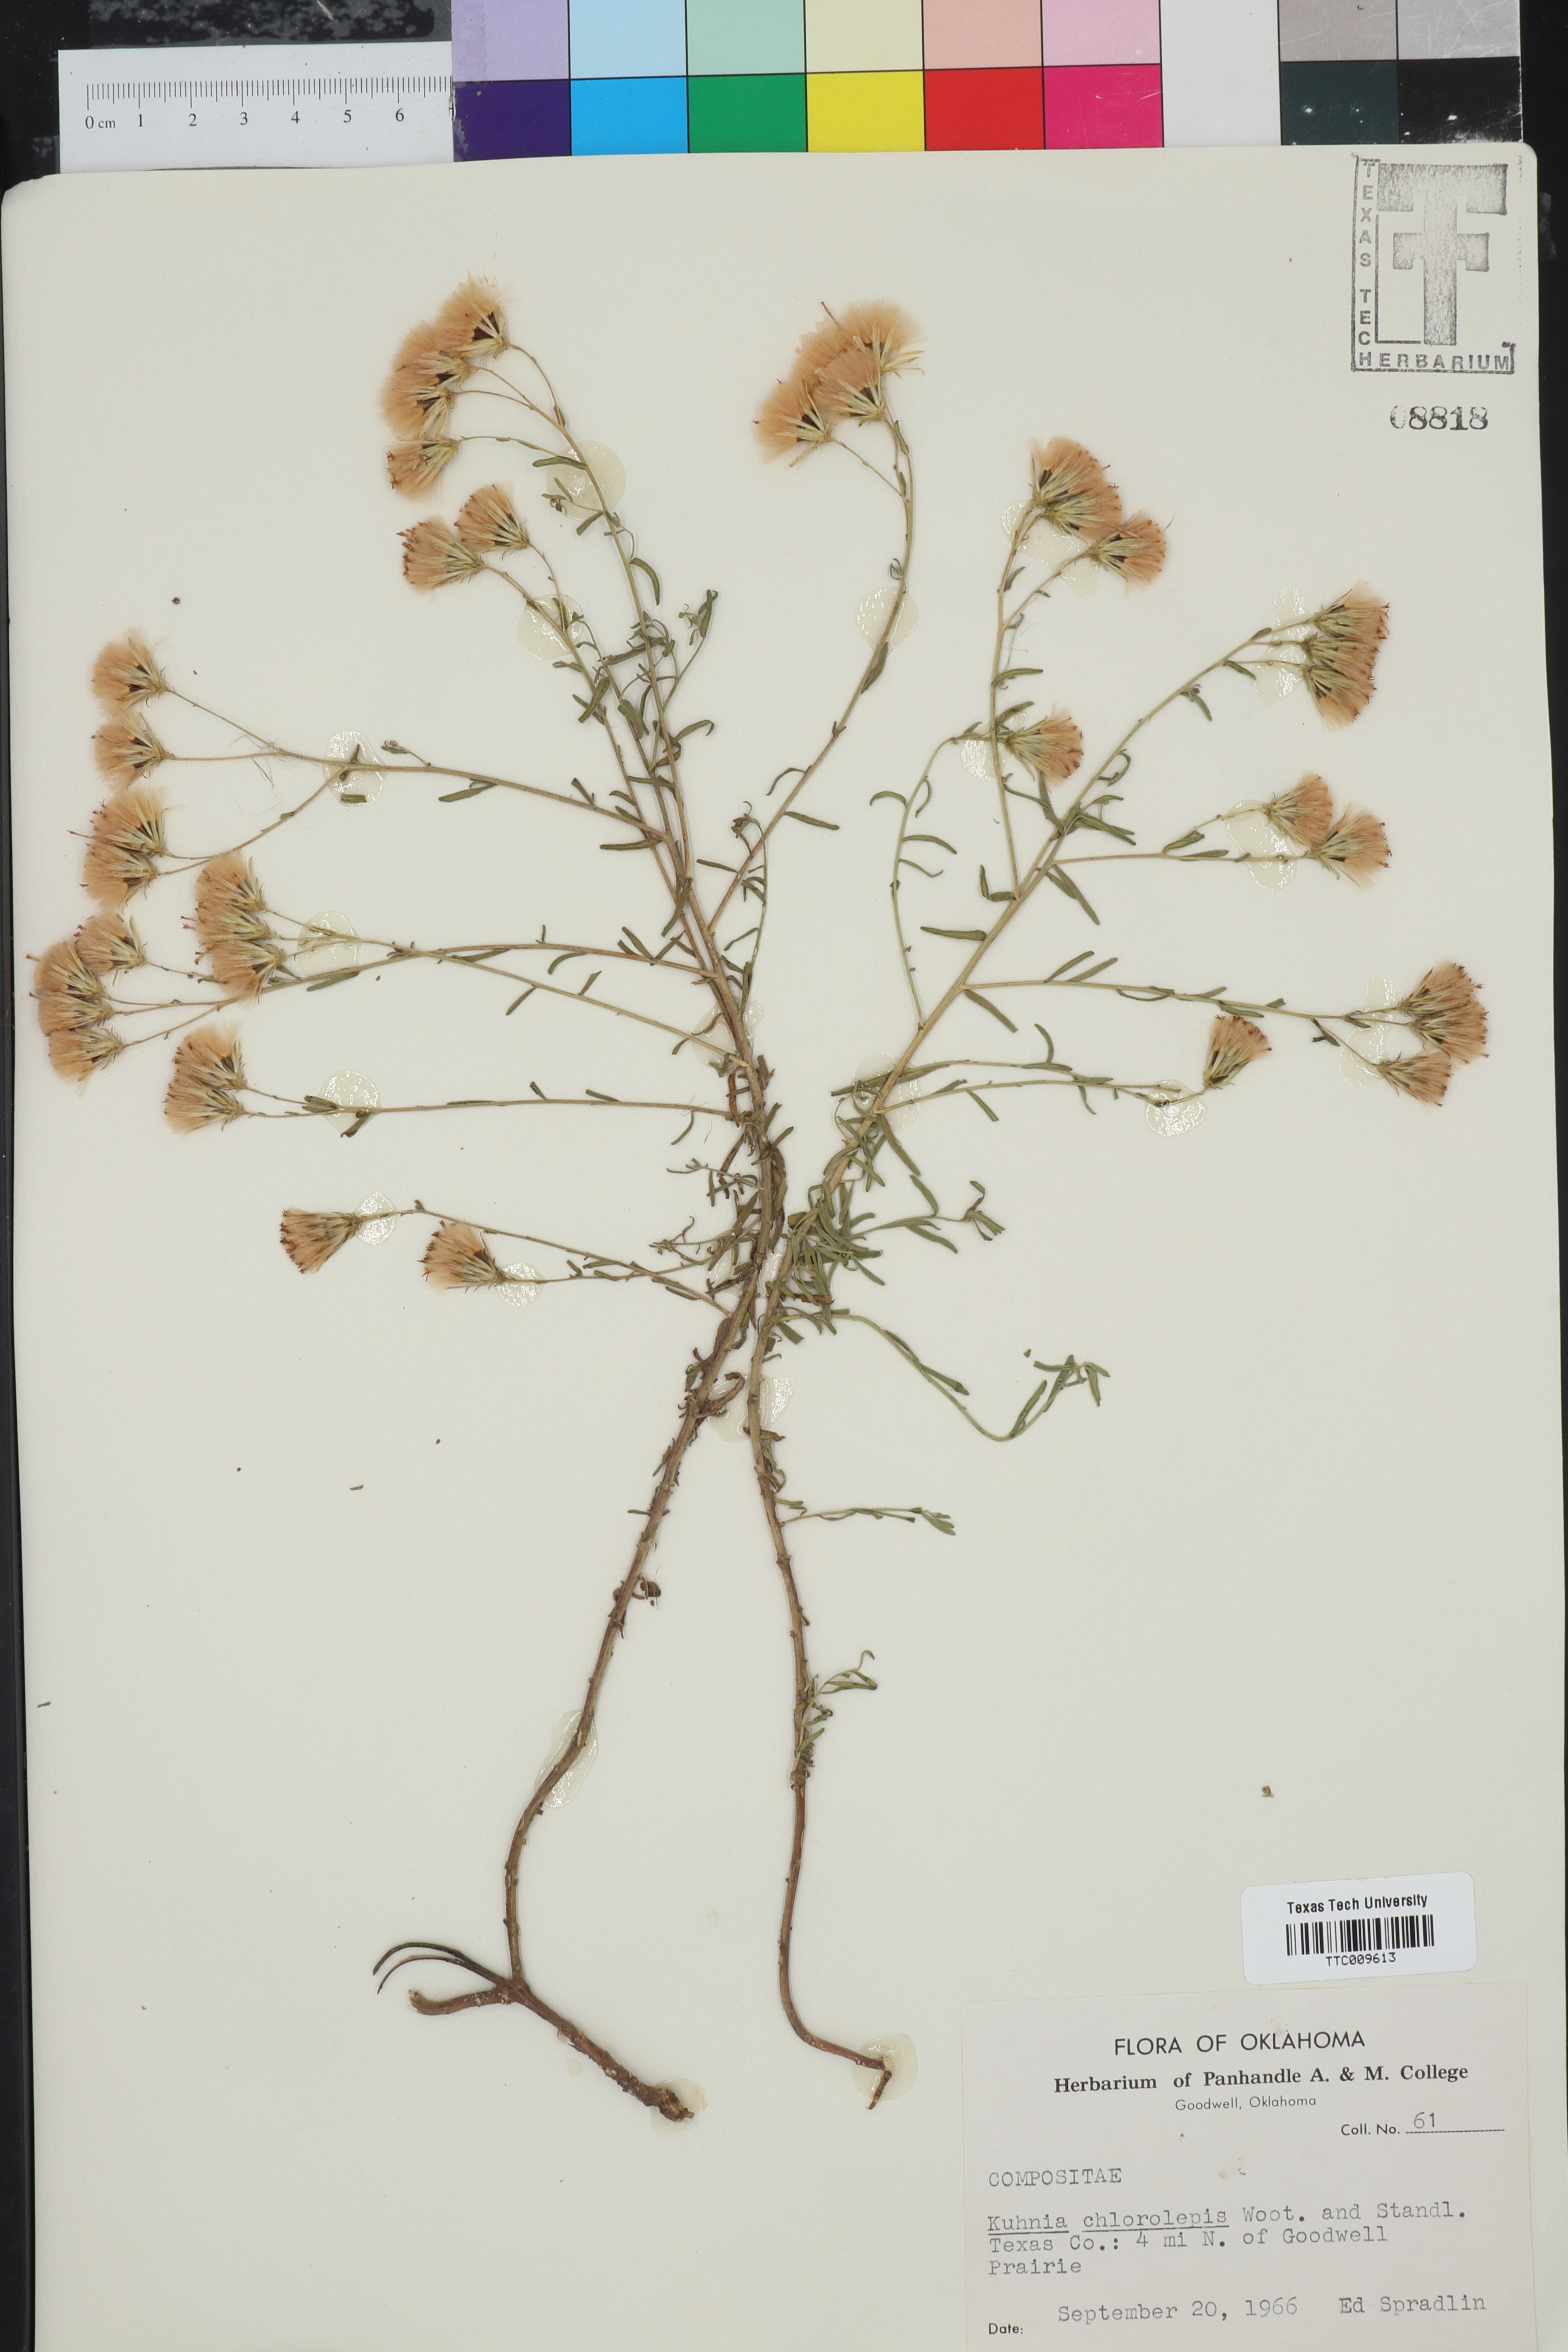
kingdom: Plantae
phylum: Tracheophyta
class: Magnoliopsida
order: Asterales
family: Asteraceae
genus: Brickellia
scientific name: Brickellia leptophylla
